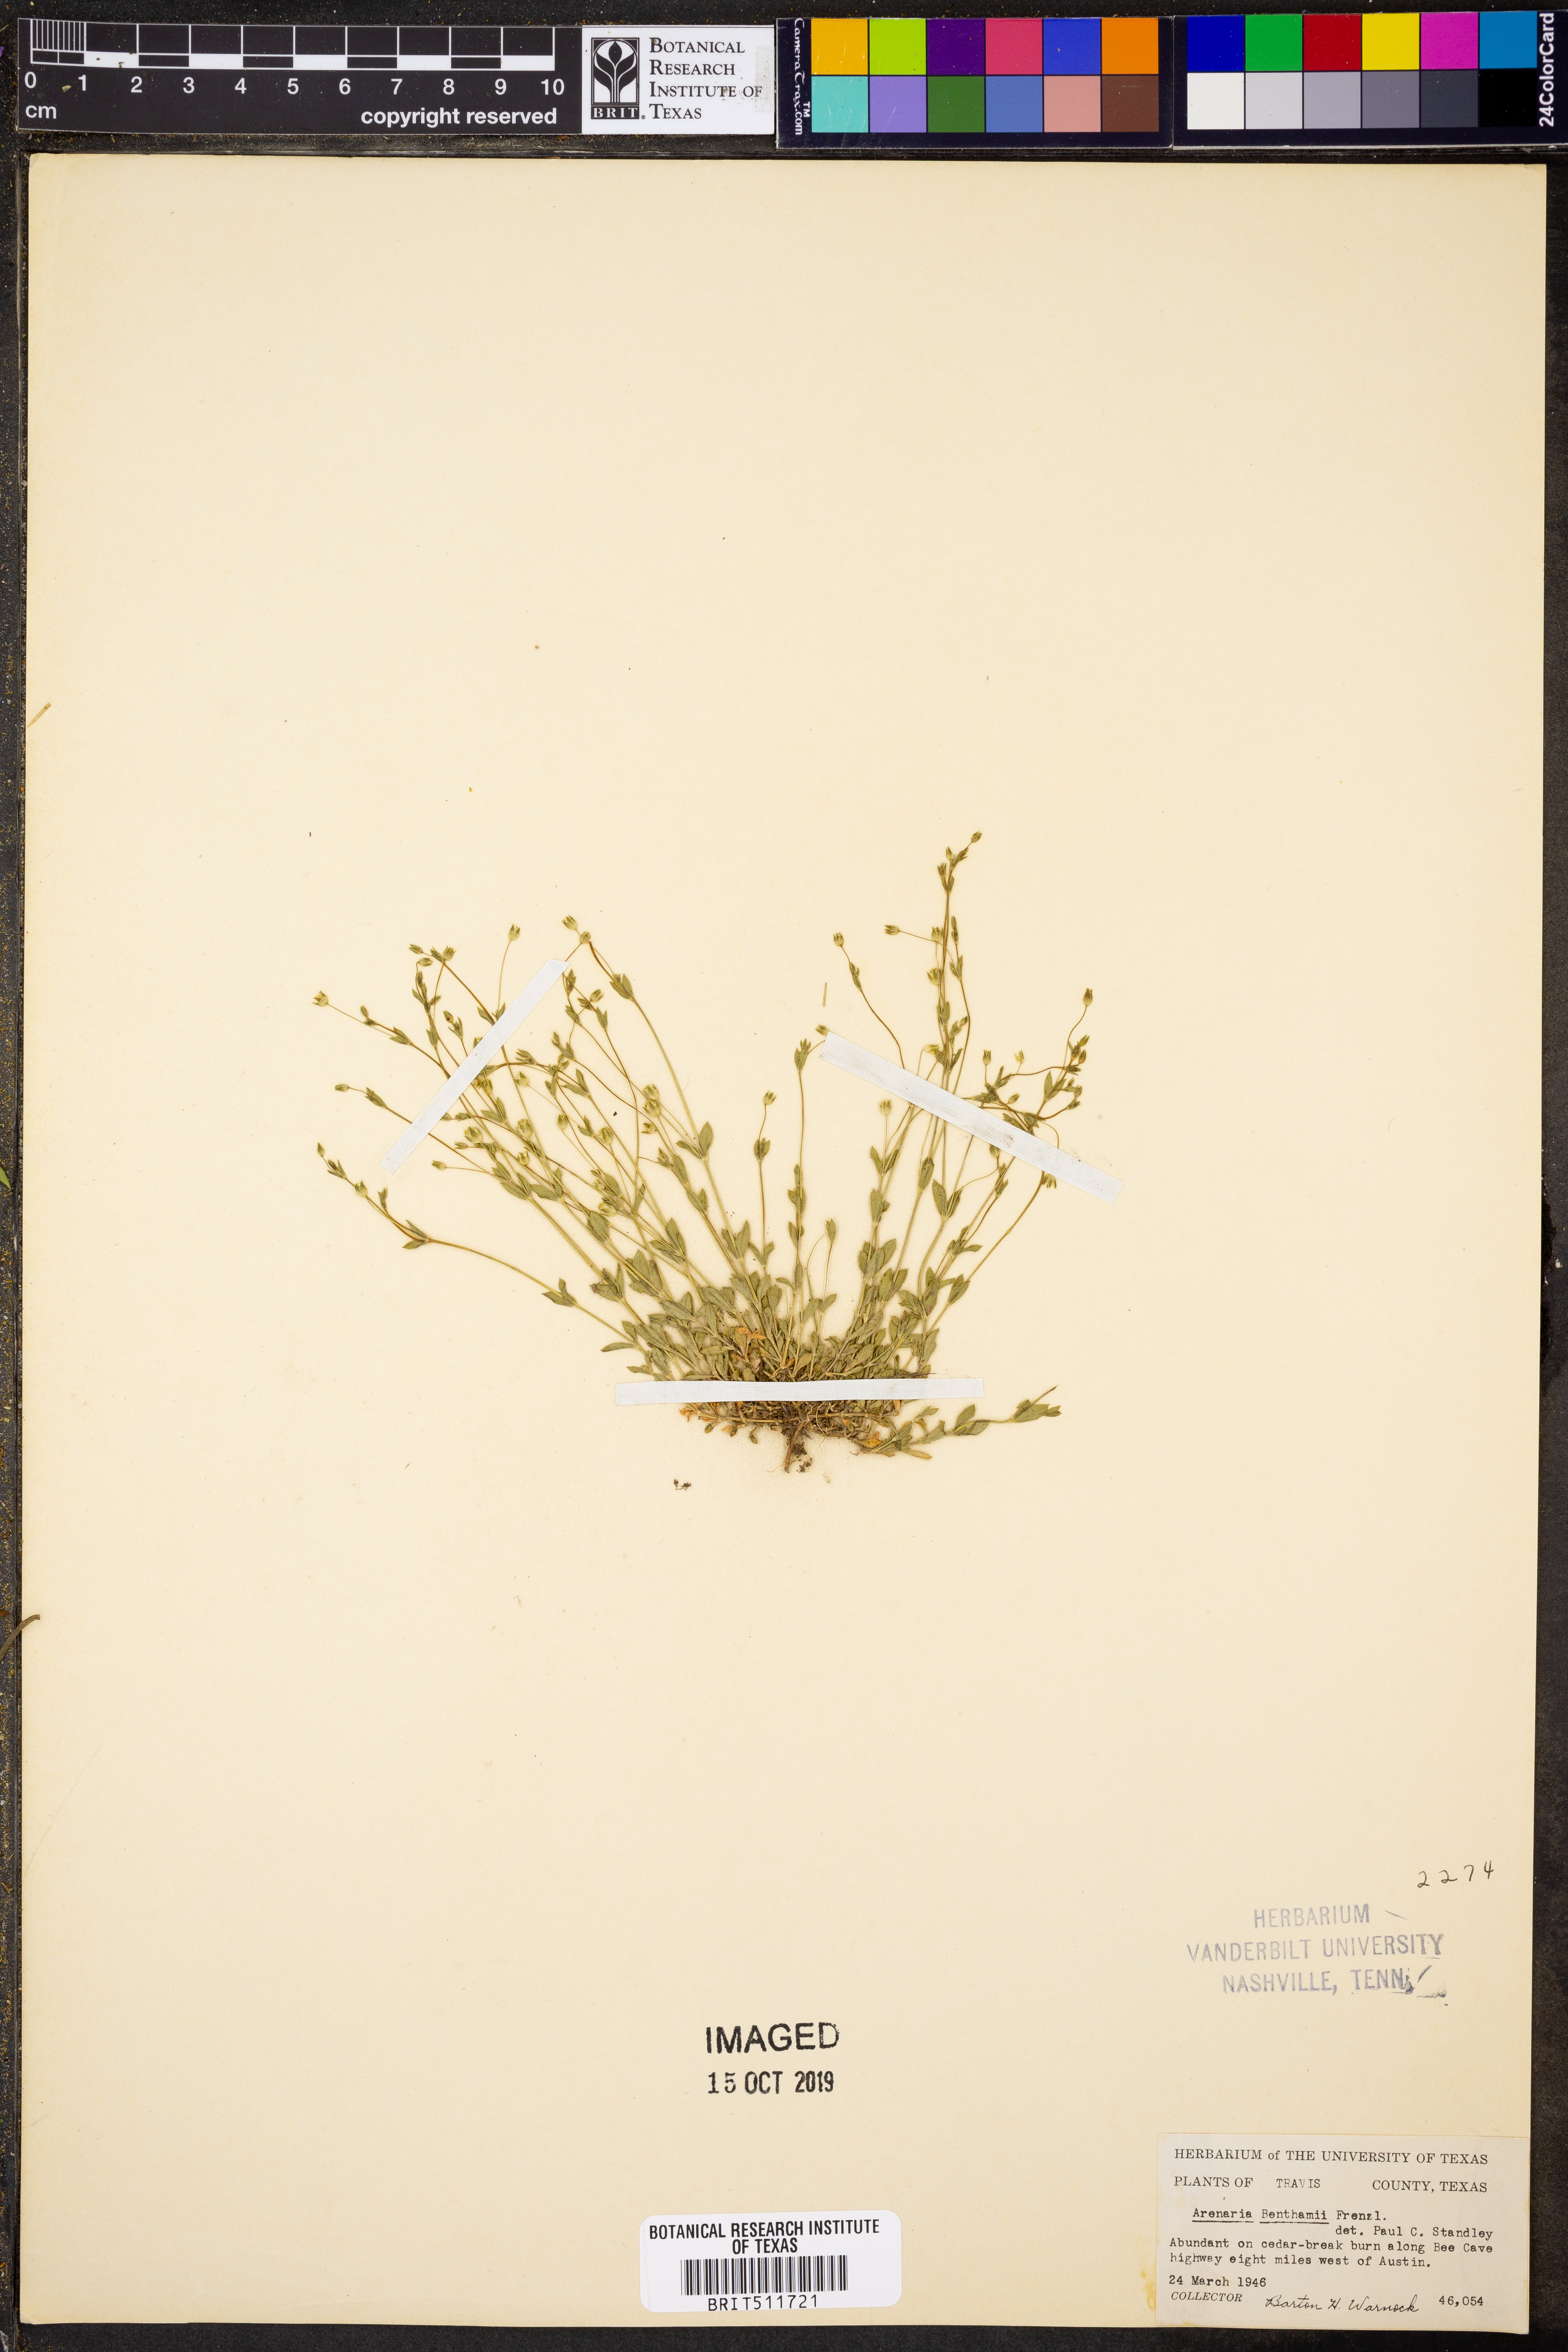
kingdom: Plantae
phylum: Tracheophyta
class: Magnoliopsida
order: Caryophyllales
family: Caryophyllaceae
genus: Arenaria
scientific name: Arenaria benthamii
